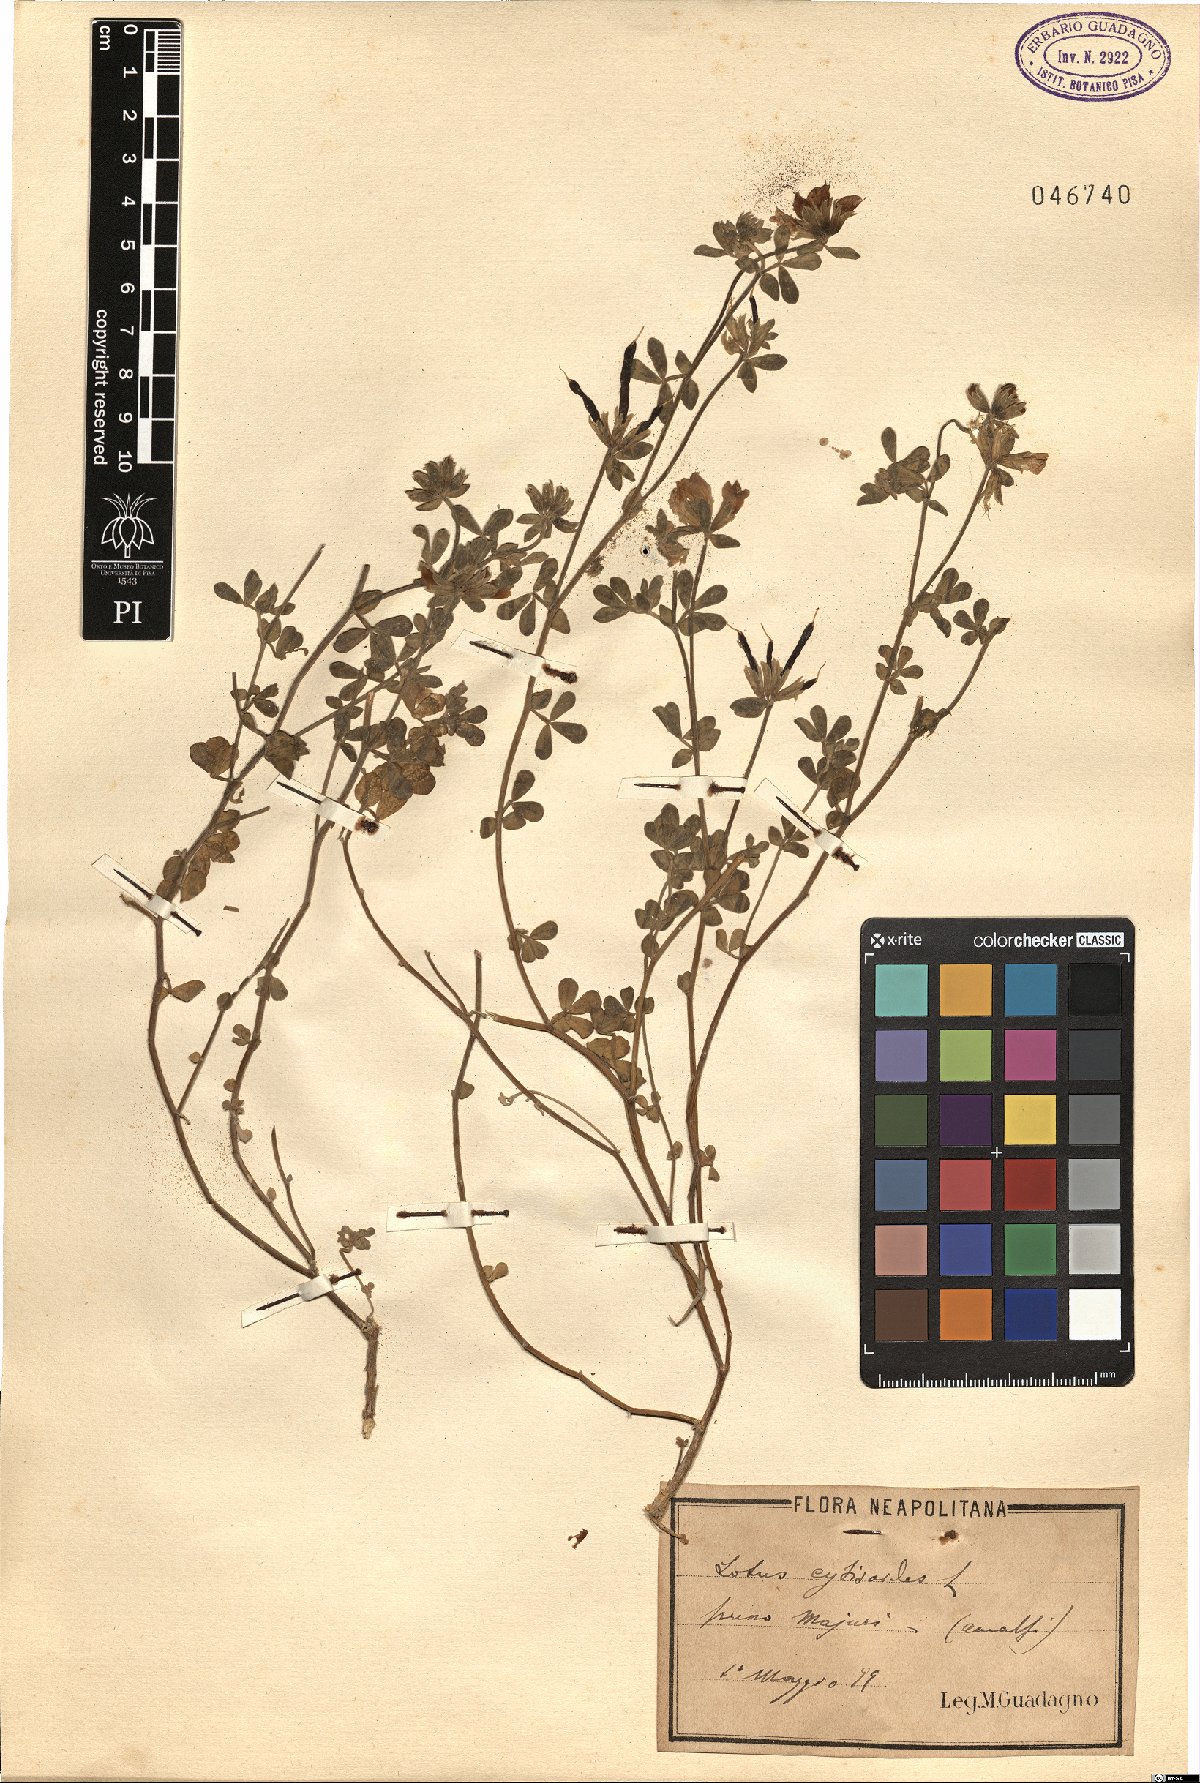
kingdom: Plantae
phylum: Tracheophyta
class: Magnoliopsida
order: Fabales
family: Fabaceae
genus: Lotus
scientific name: Lotus cytisoides
